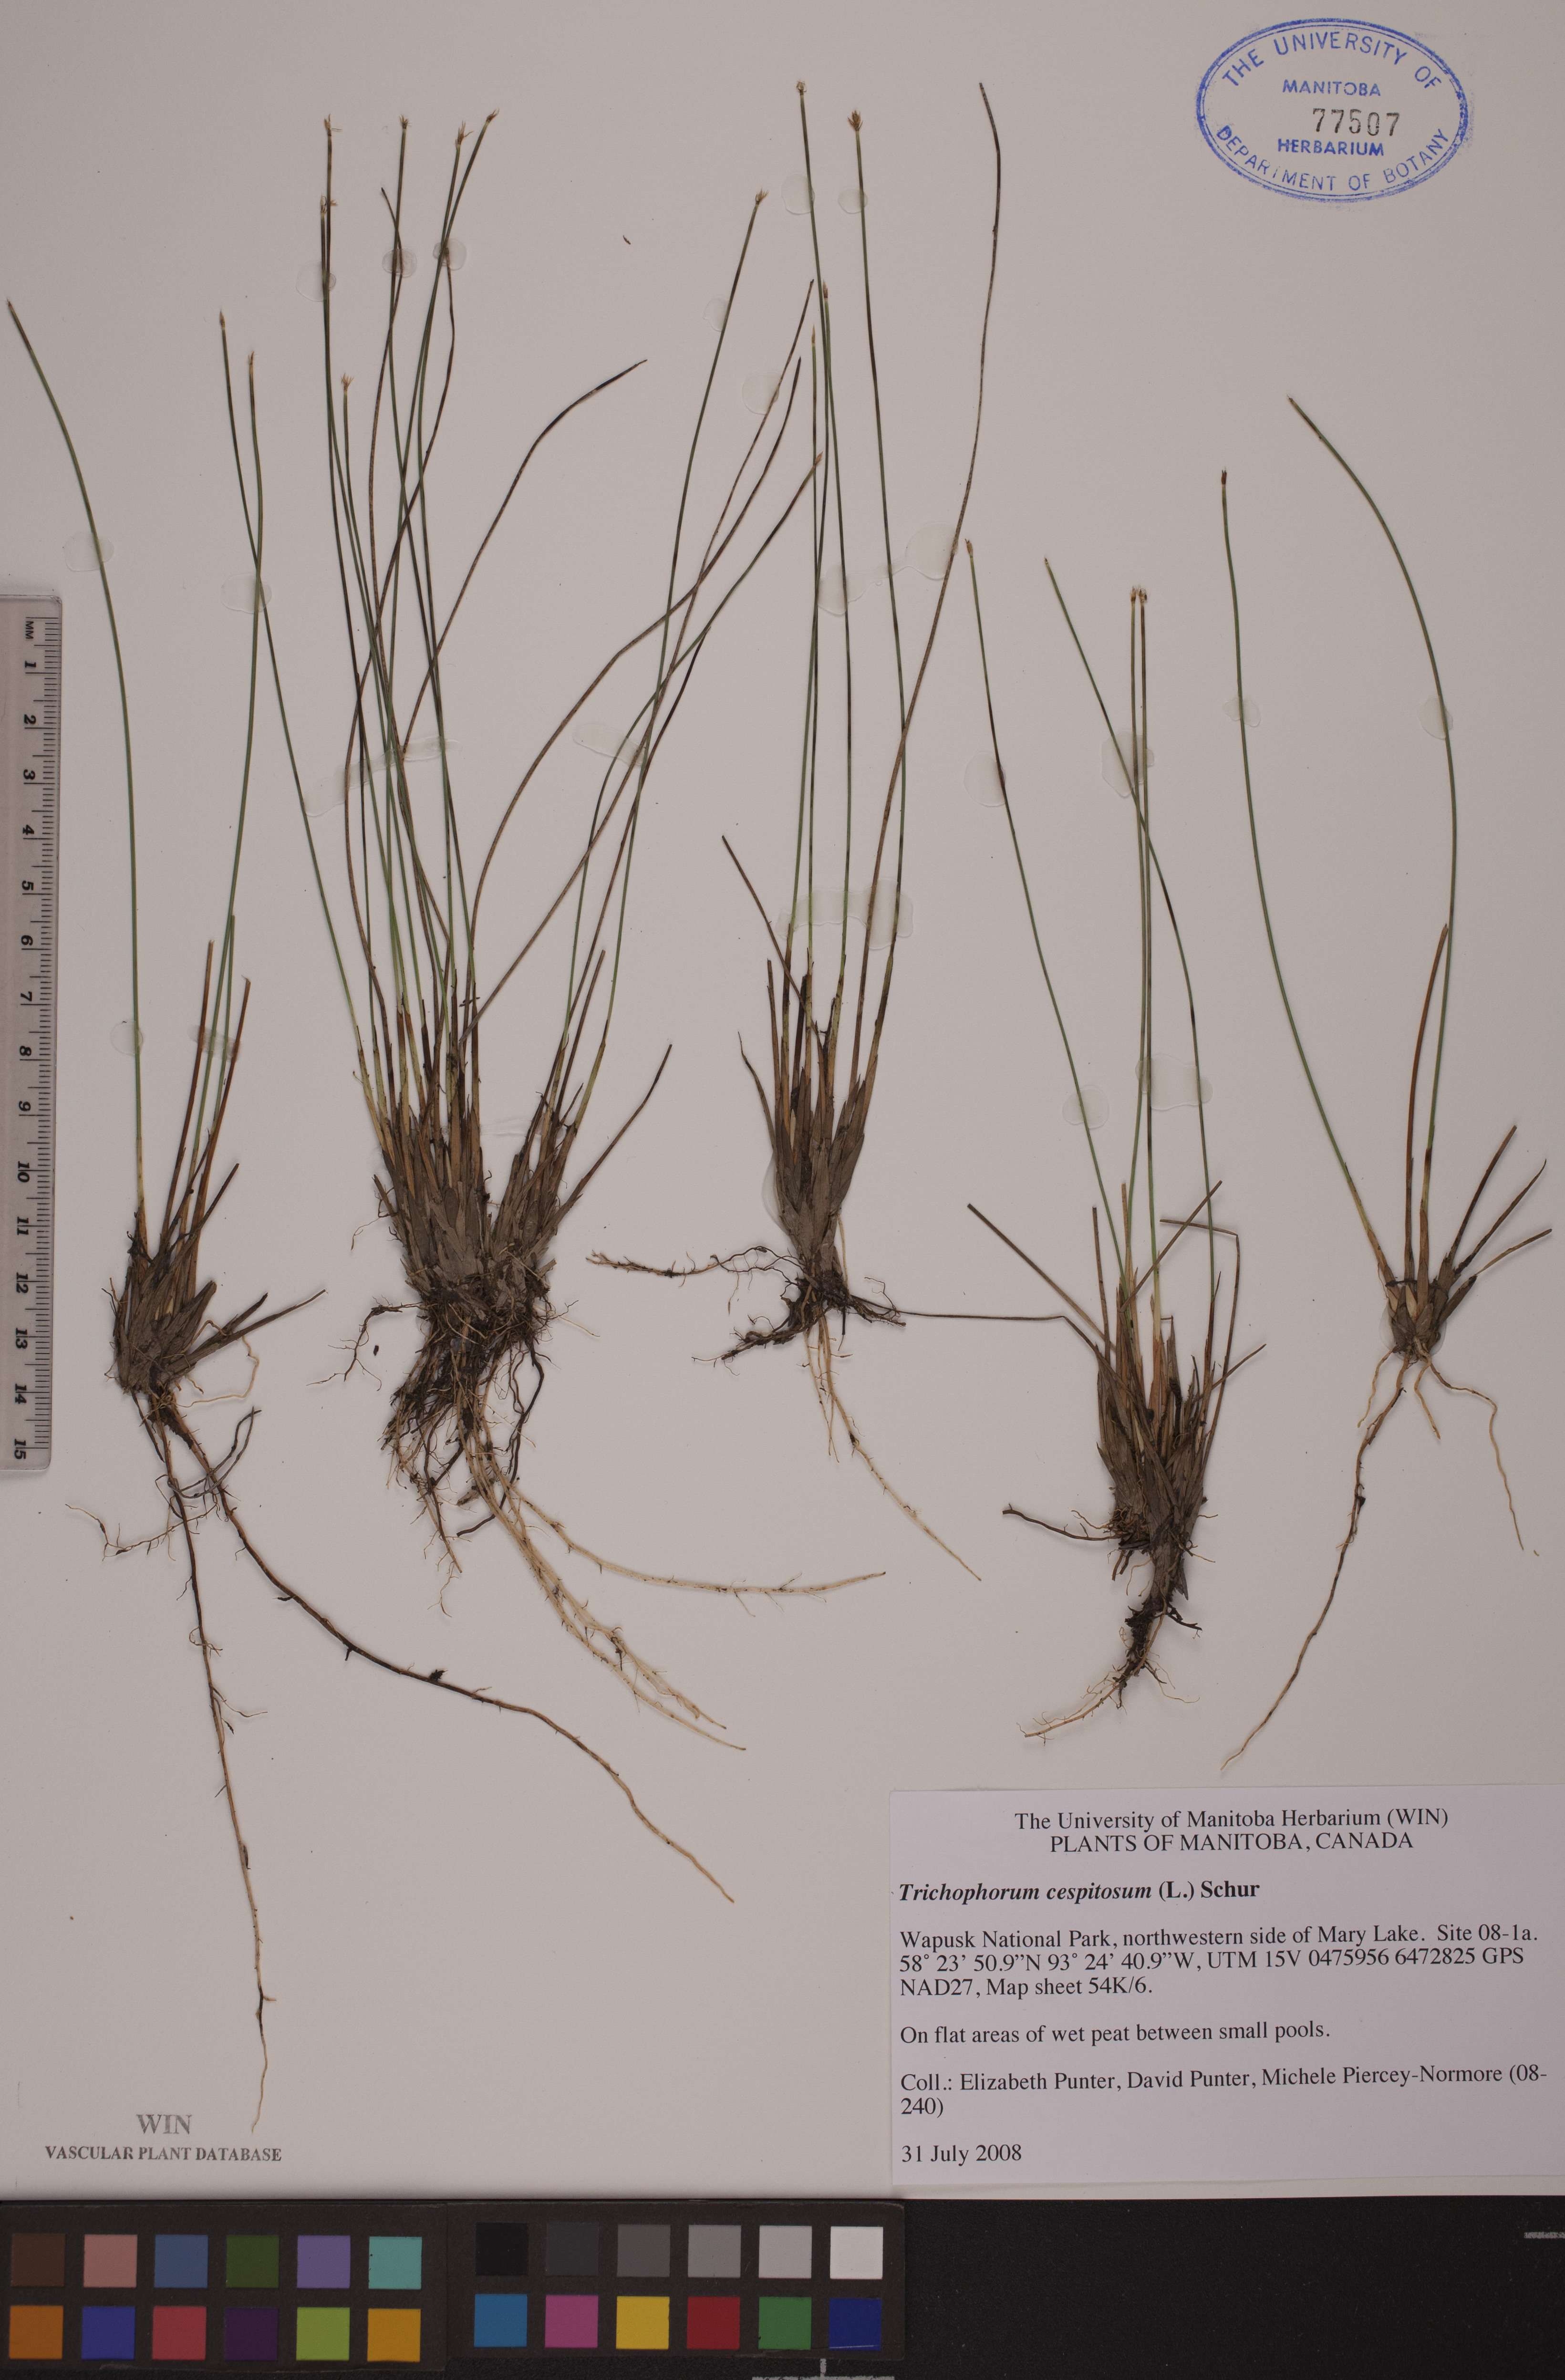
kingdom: Plantae
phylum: Tracheophyta
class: Liliopsida
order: Poales
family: Cyperaceae
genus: Trichophorum
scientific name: Trichophorum cespitosum
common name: Cespitose bulrush
